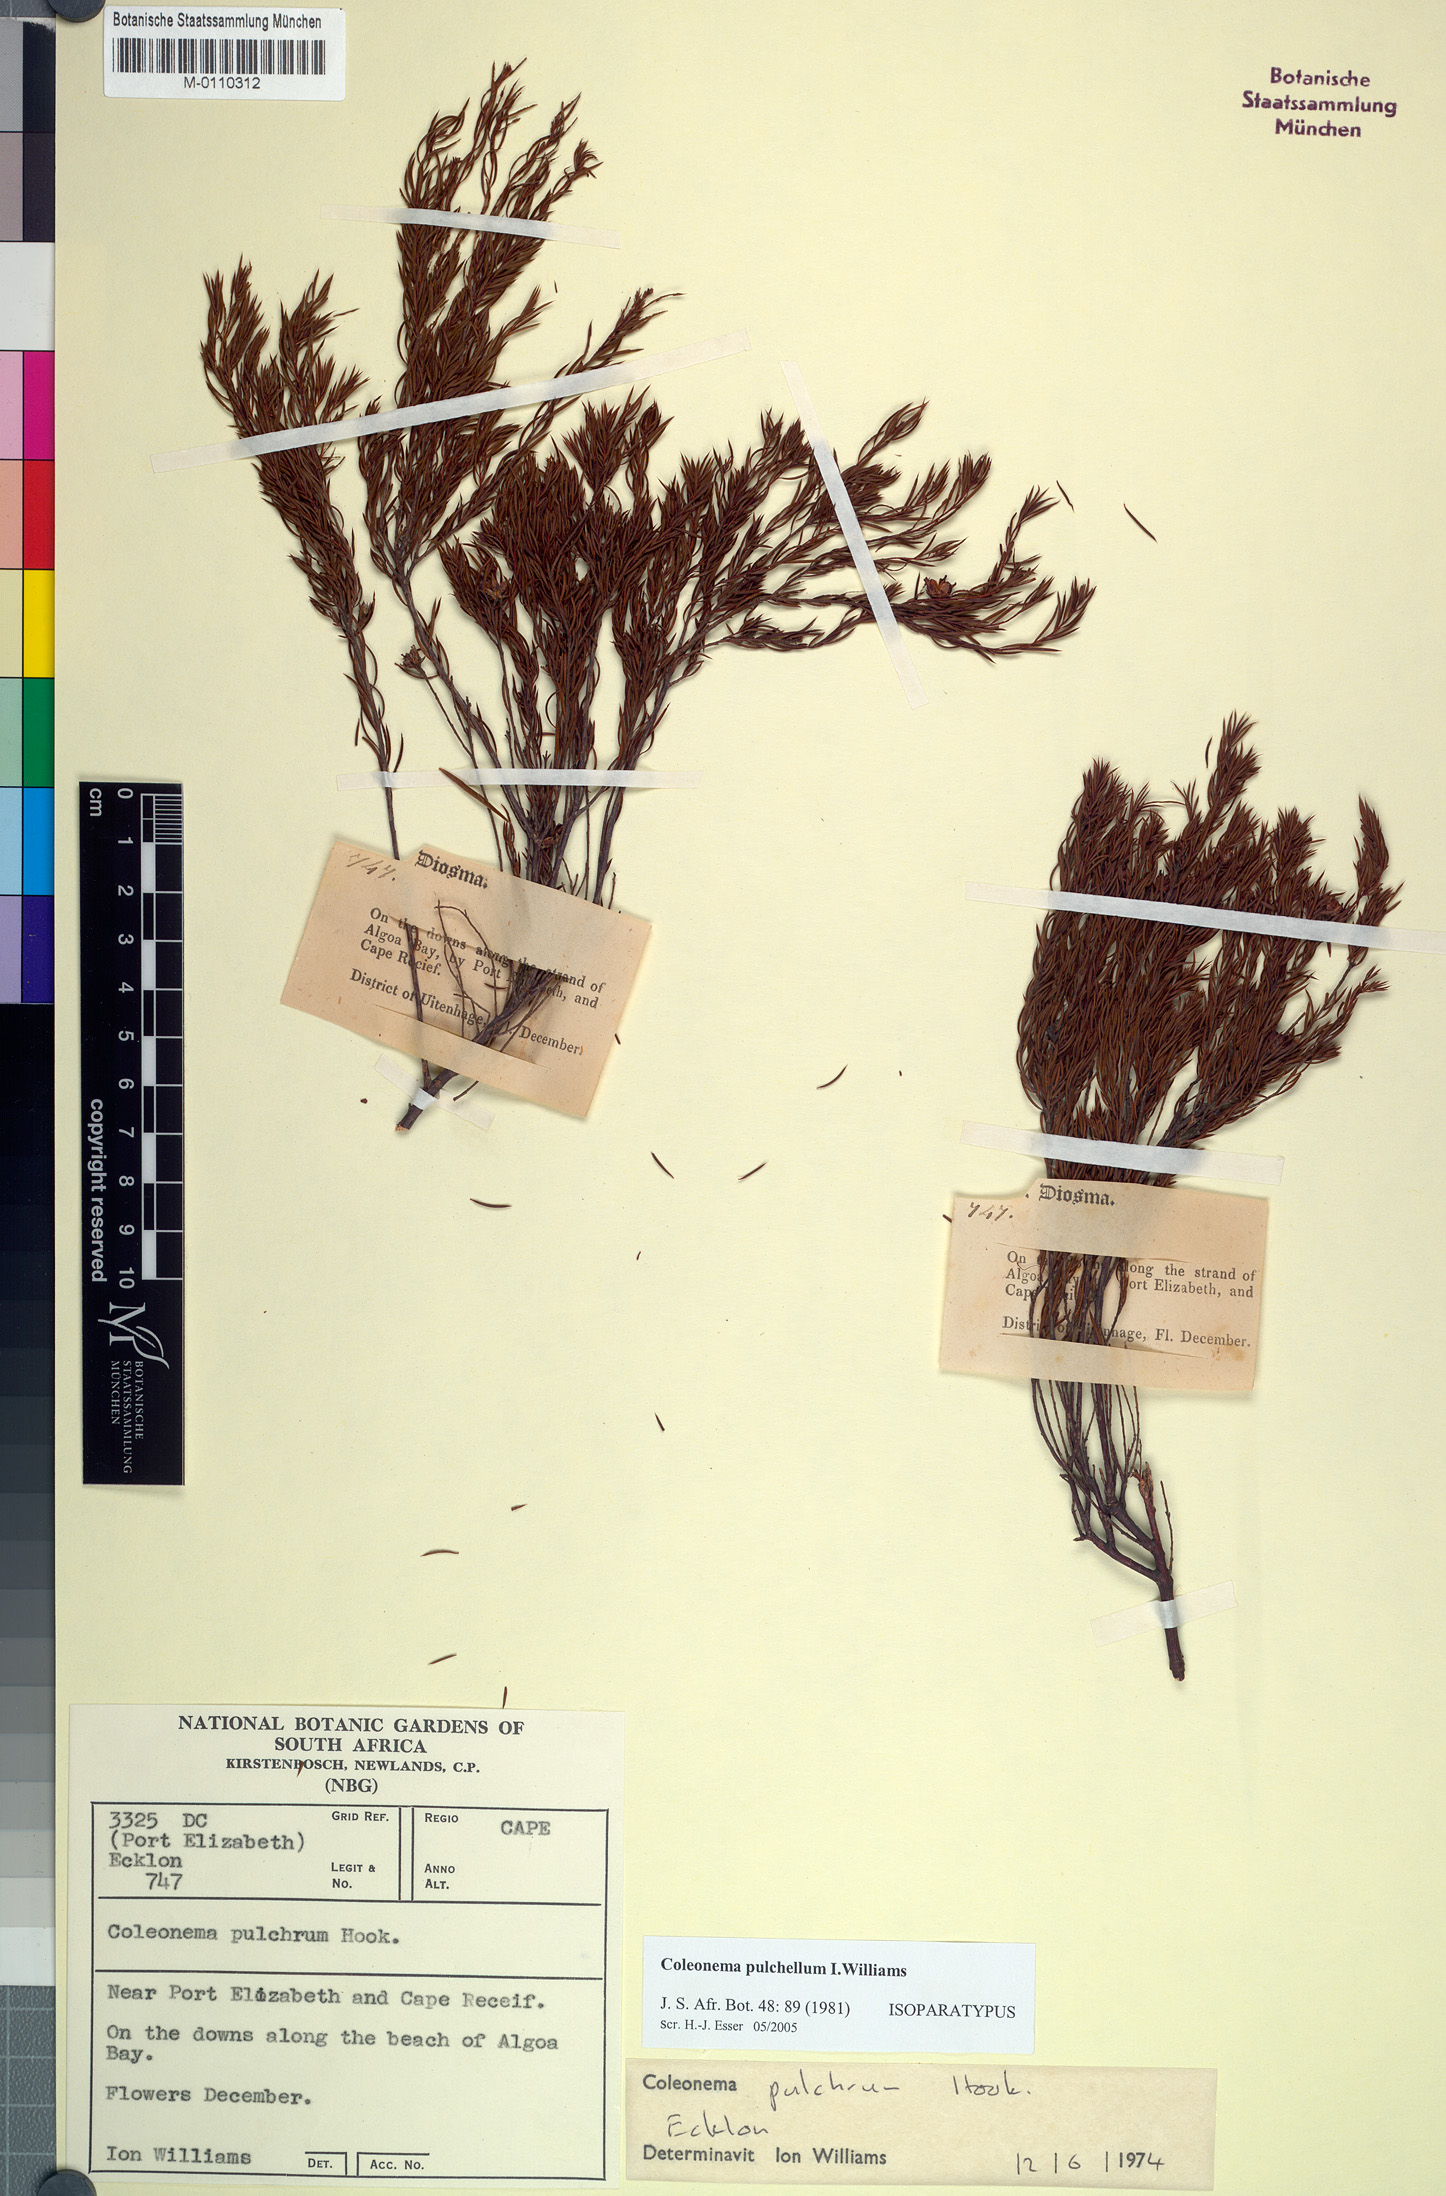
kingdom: Plantae
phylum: Tracheophyta
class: Magnoliopsida
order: Sapindales
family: Rutaceae
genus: Coleonema
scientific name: Coleonema pulchellum
